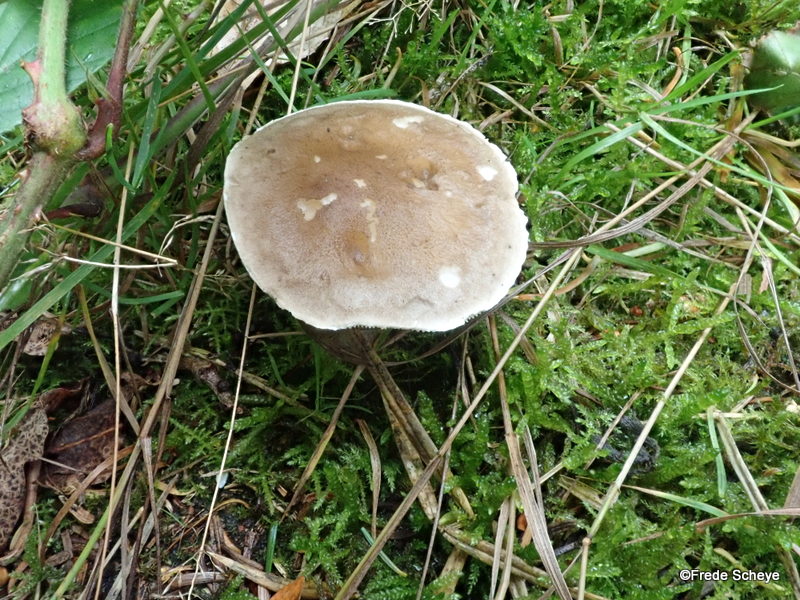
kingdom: Fungi
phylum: Basidiomycota
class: Agaricomycetes
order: Agaricales
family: Hygrophoraceae
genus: Ampulloclitocybe
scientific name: Ampulloclitocybe clavipes
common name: køllefod
